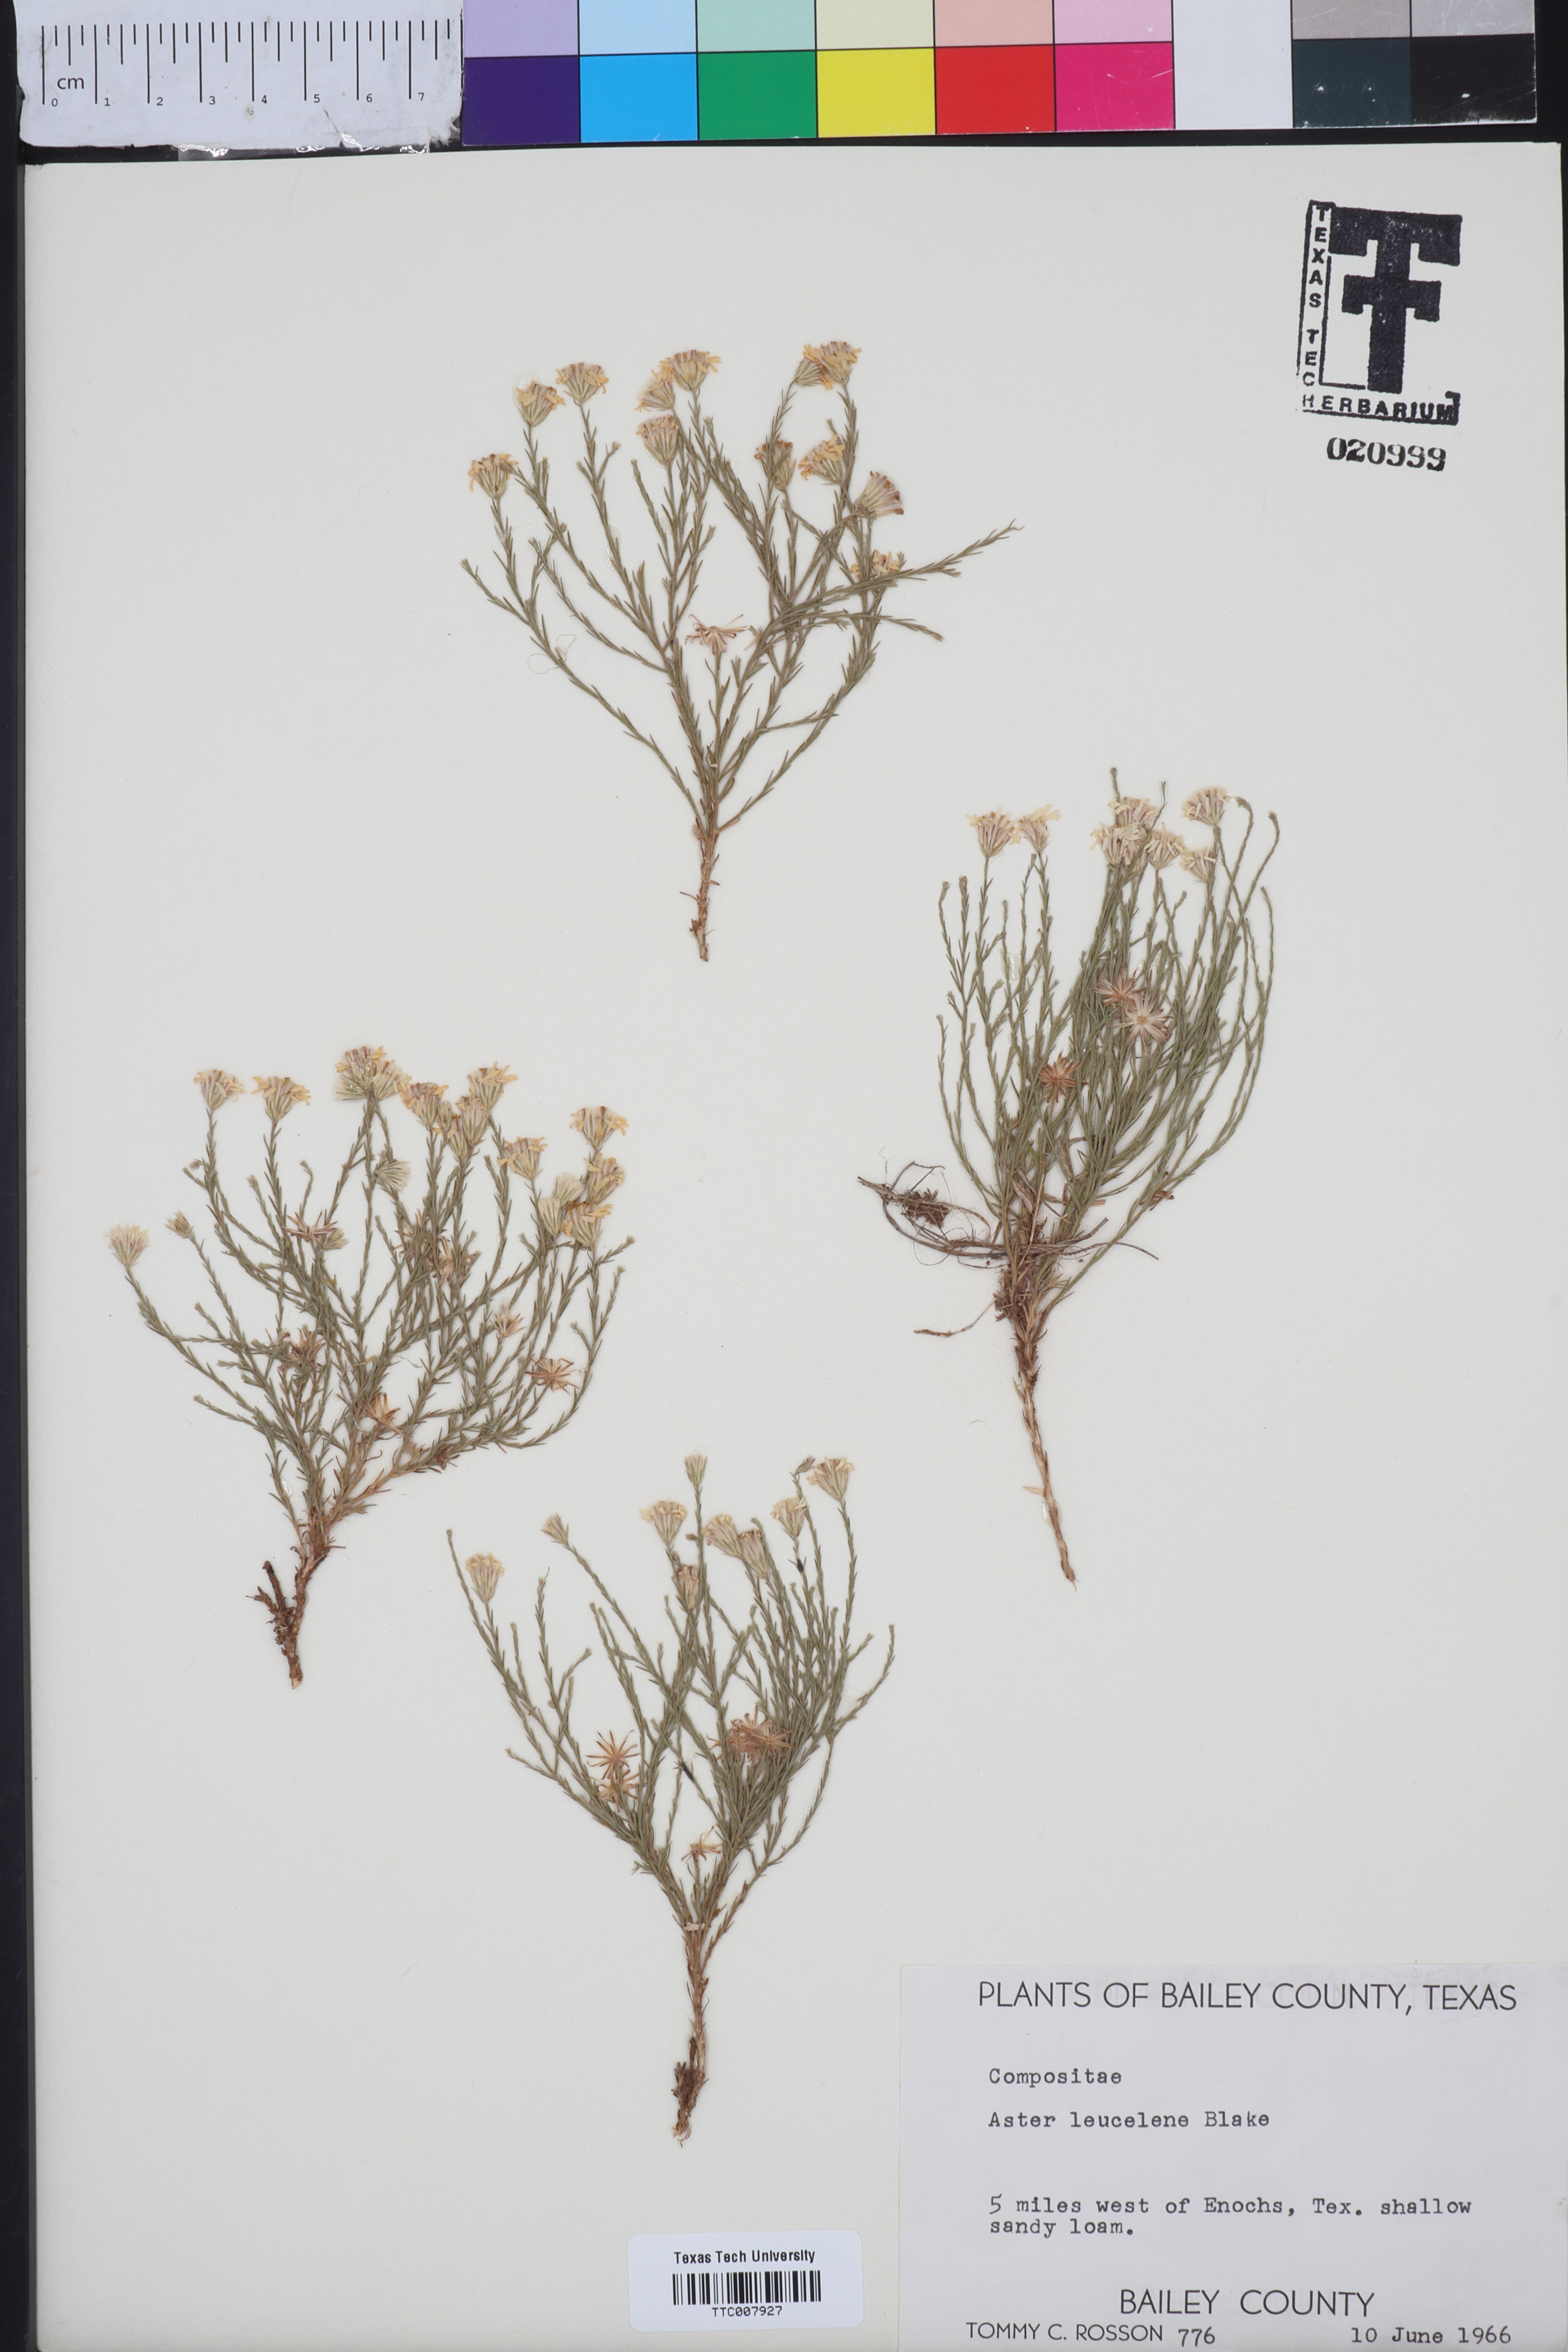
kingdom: Plantae
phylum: Tracheophyta
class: Magnoliopsida
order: Asterales
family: Asteraceae
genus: Chaetopappa
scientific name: Chaetopappa ericoides
